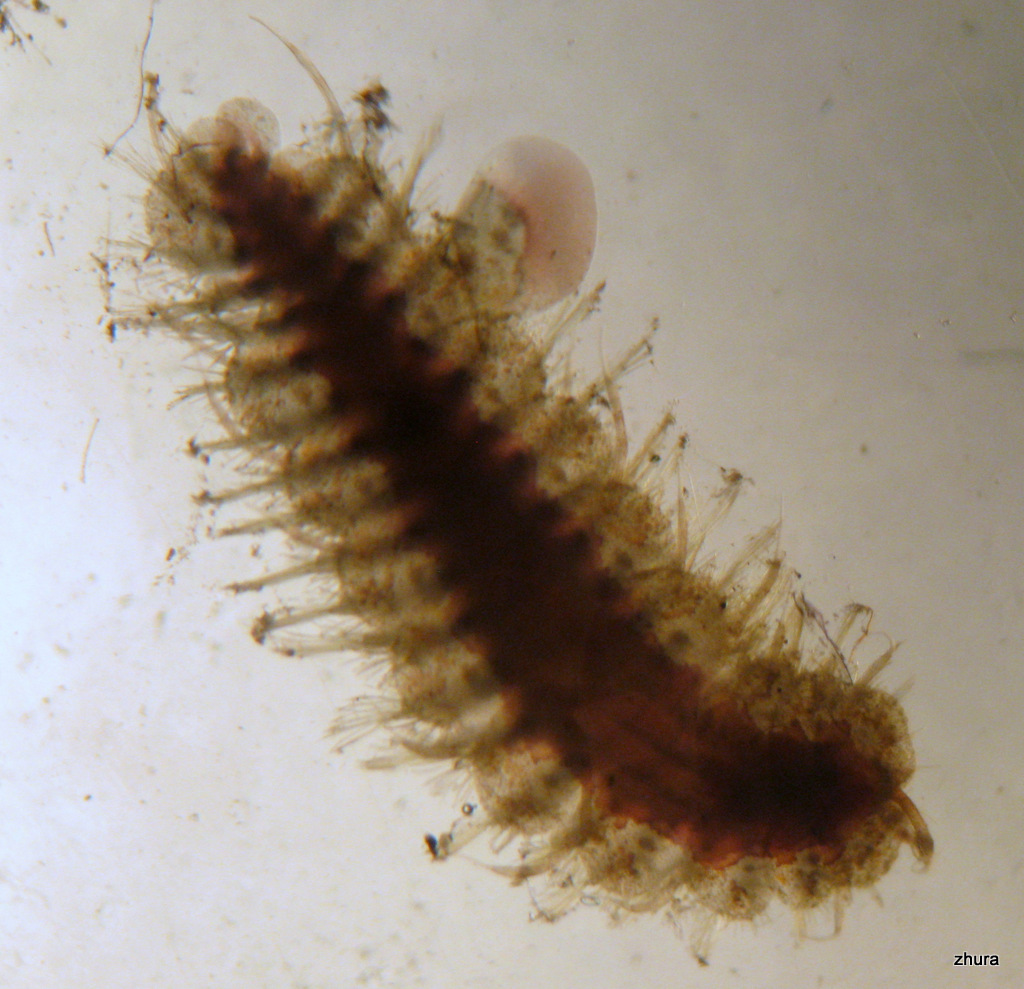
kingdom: Animalia
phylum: Annelida
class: Polychaeta
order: Phyllodocida
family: Polynoidae
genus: Lepidonotus
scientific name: Lepidonotus squamatus
